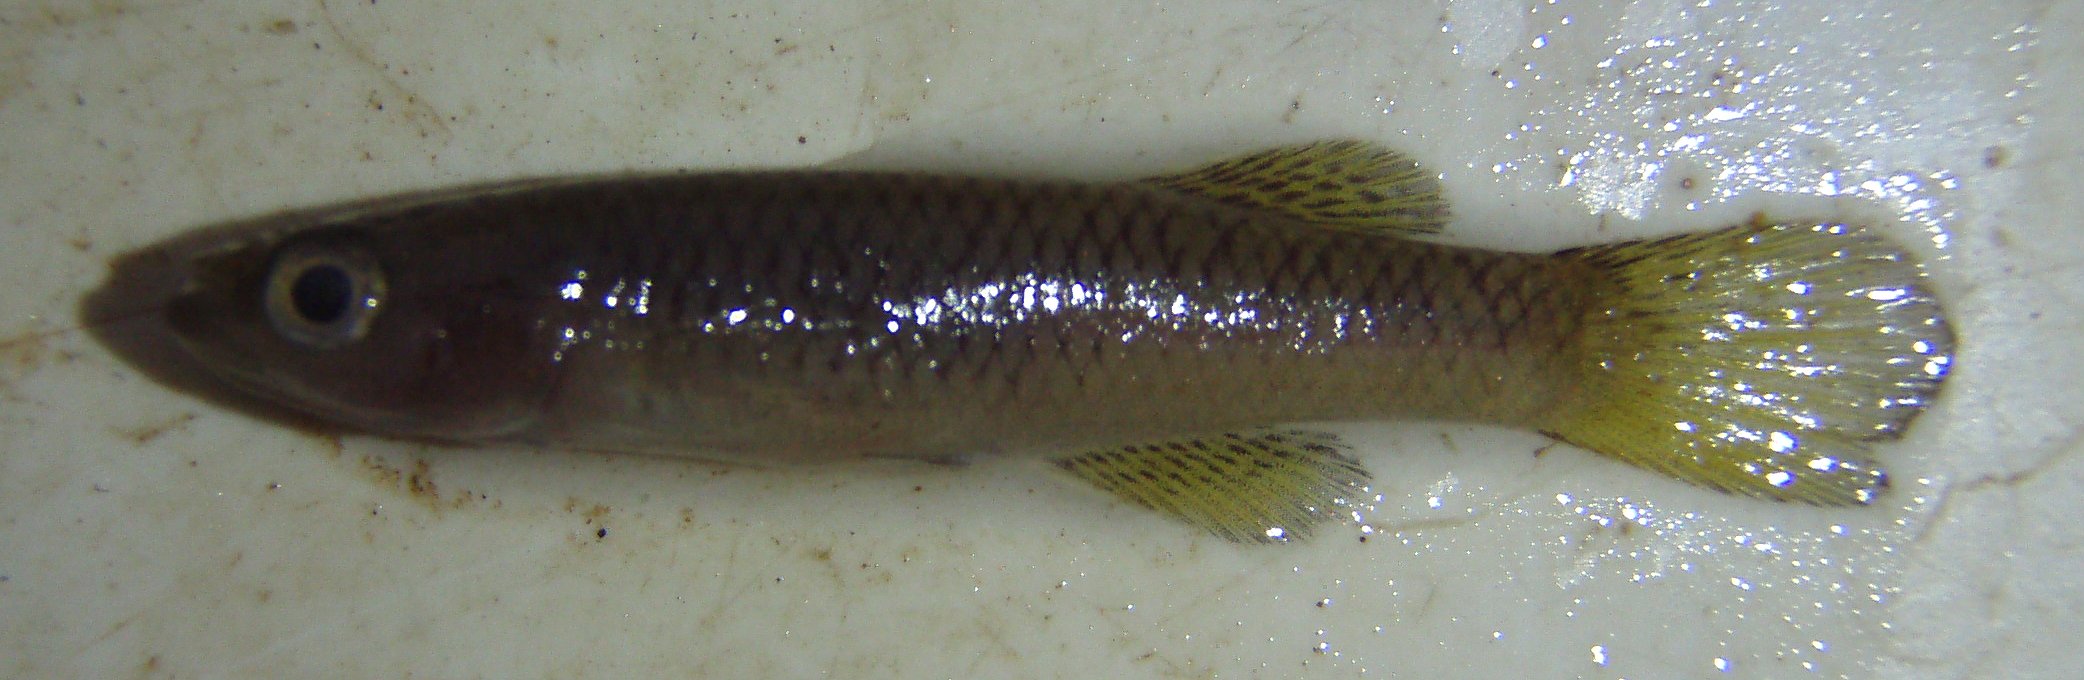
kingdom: Animalia
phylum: Chordata
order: Cyprinodontiformes
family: Poeciliidae
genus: Aplocheilichthys
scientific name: Aplocheilichthys
